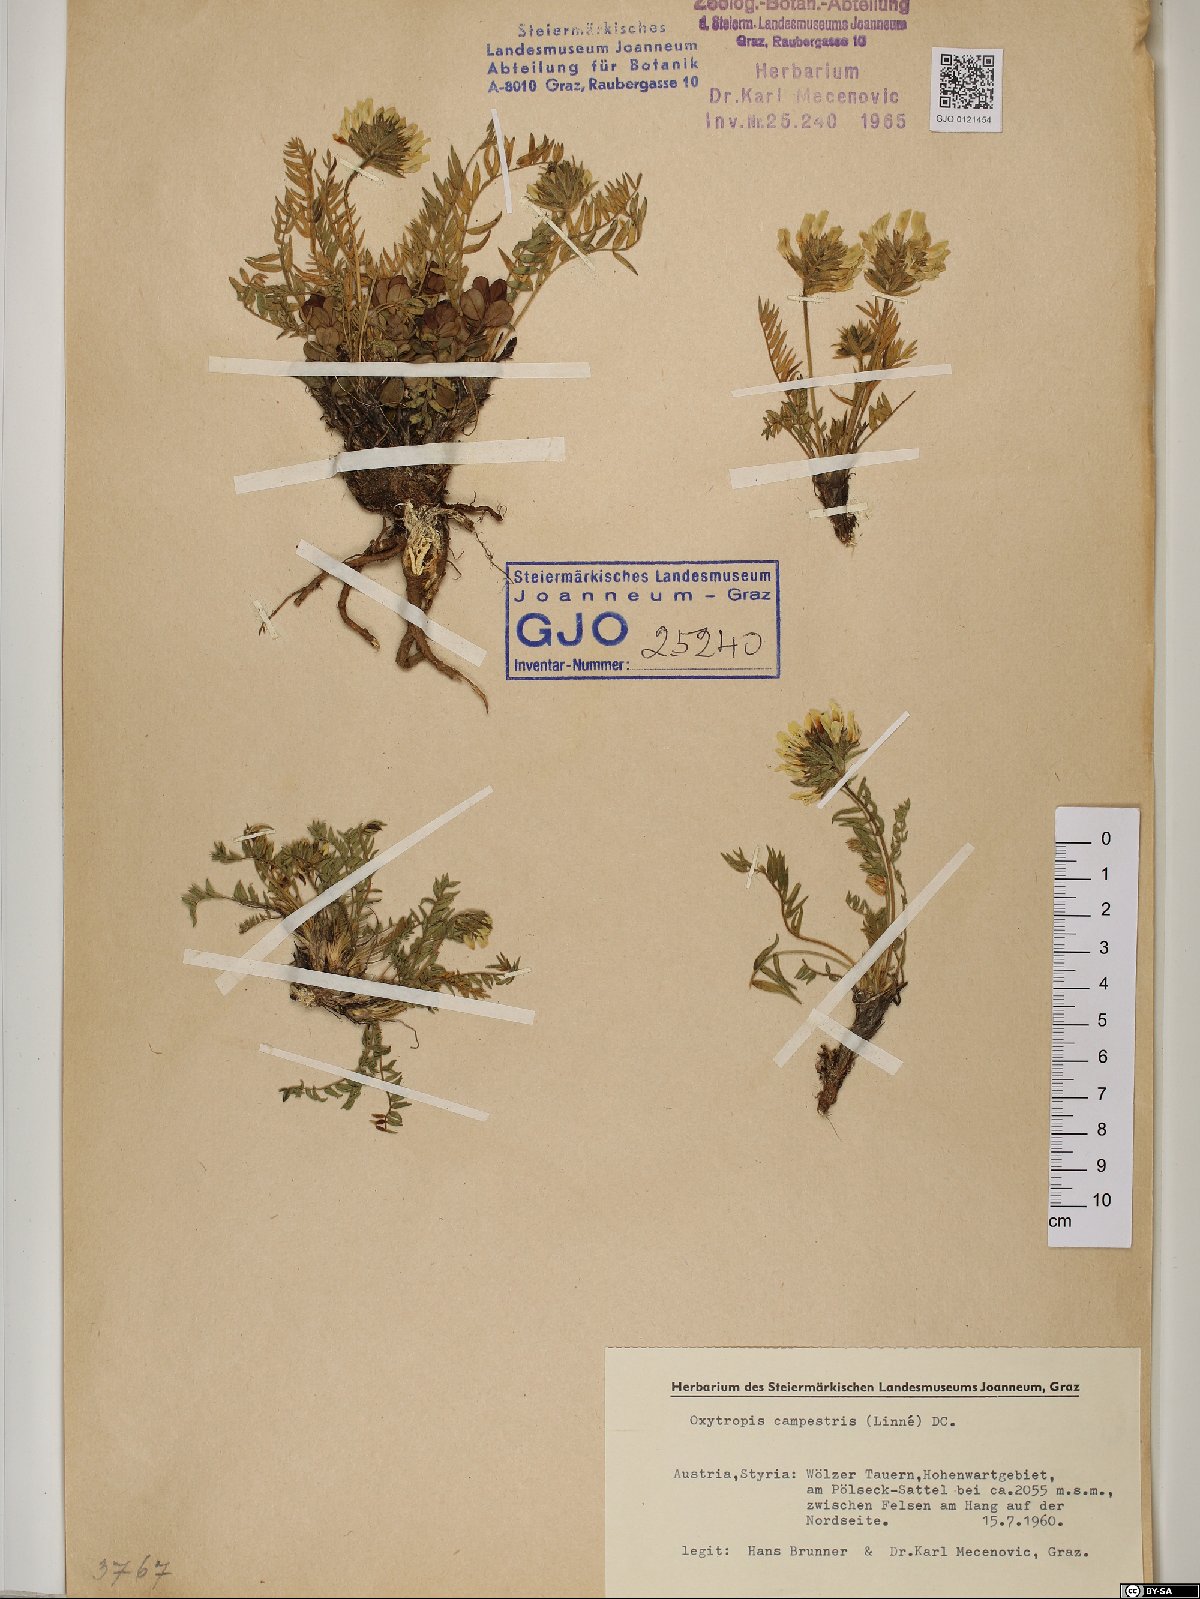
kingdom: Plantae
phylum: Tracheophyta
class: Magnoliopsida
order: Fabales
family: Fabaceae
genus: Oxytropis
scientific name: Oxytropis campestris
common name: Field locoweed
